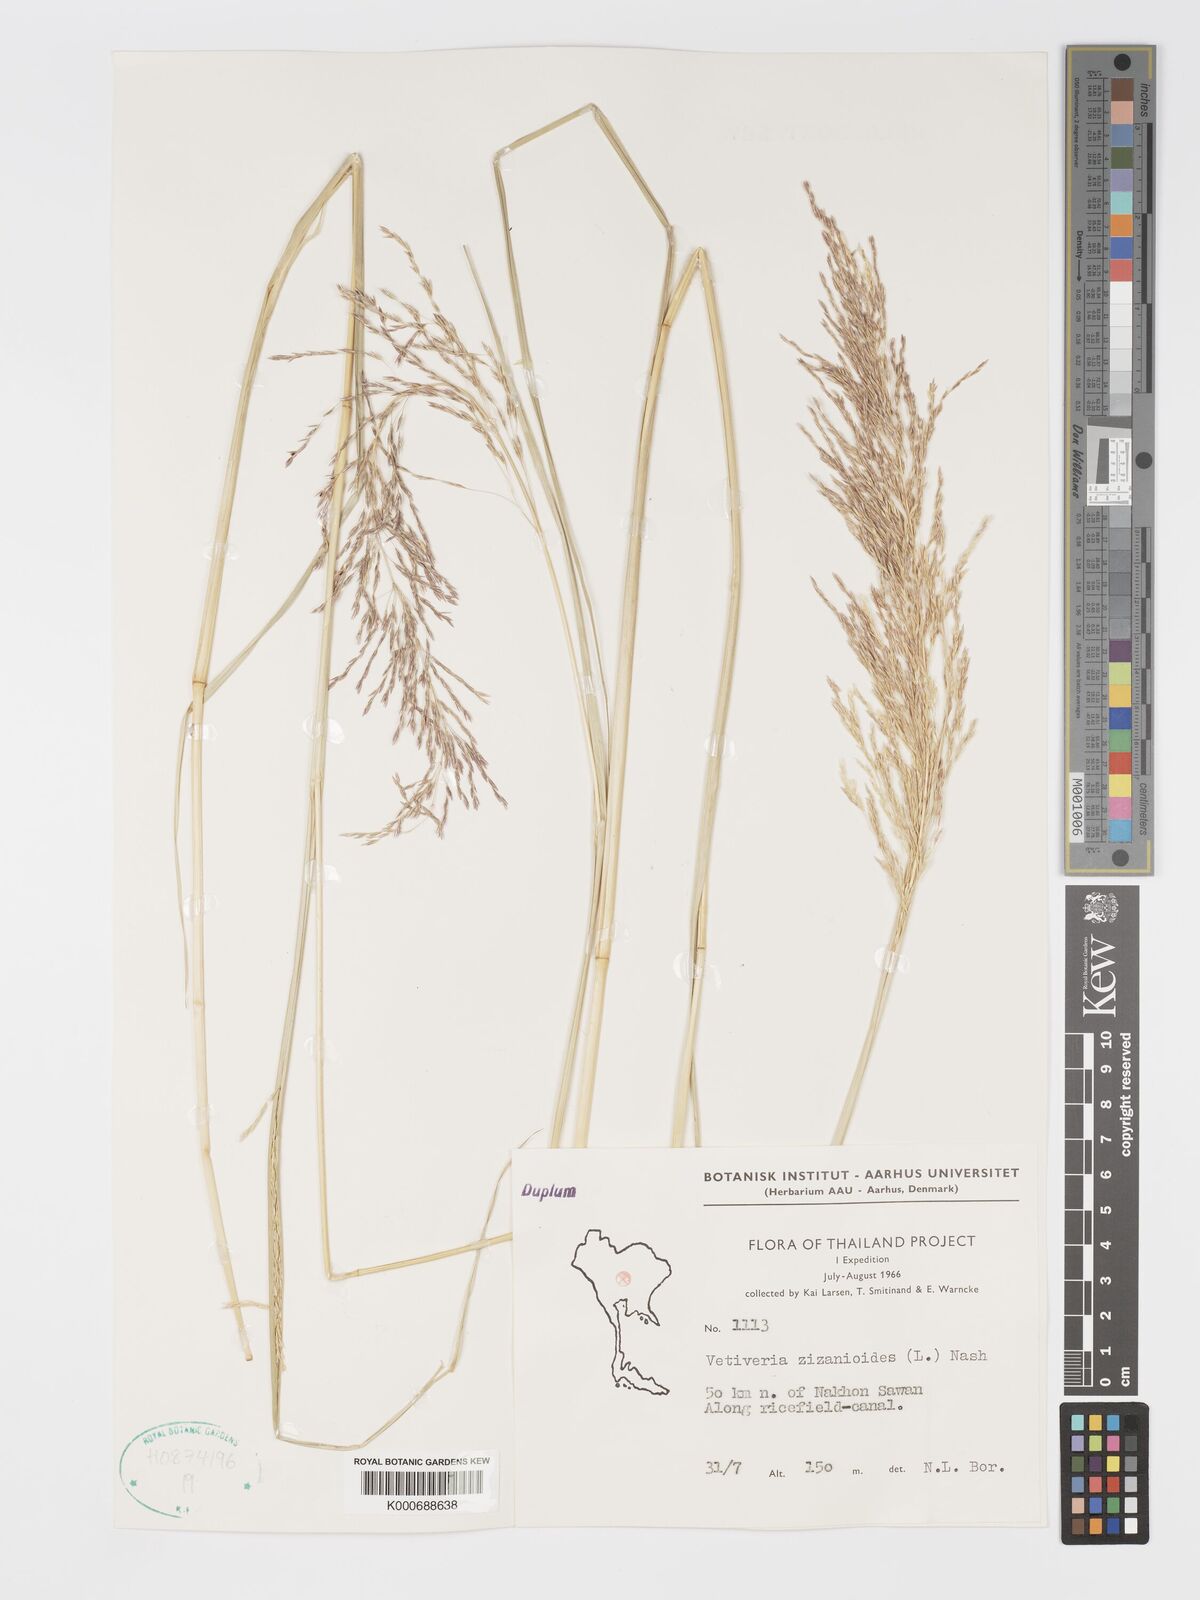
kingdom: Plantae
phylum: Tracheophyta
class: Liliopsida
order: Poales
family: Poaceae
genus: Chrysopogon
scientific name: Chrysopogon zizanioides
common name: False beardgrass
